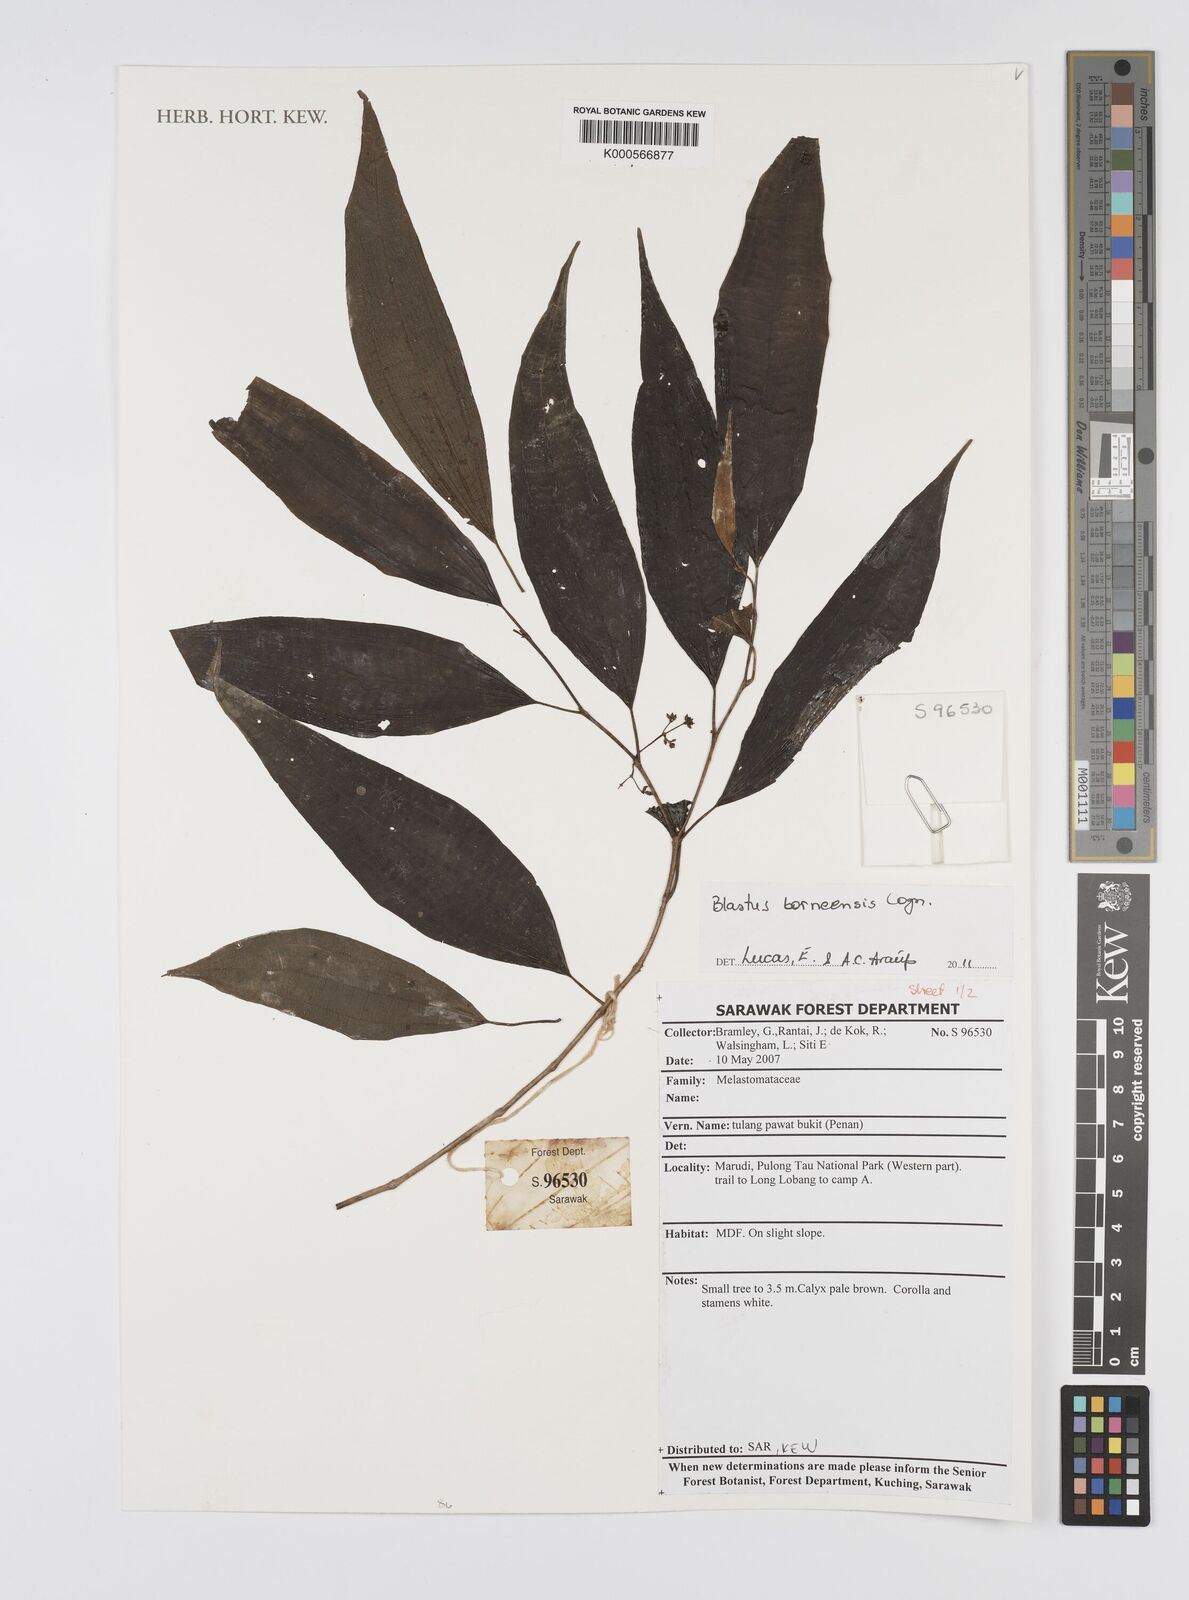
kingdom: Plantae
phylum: Tracheophyta
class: Magnoliopsida
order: Myrtales
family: Melastomataceae
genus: Blastus
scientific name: Blastus
